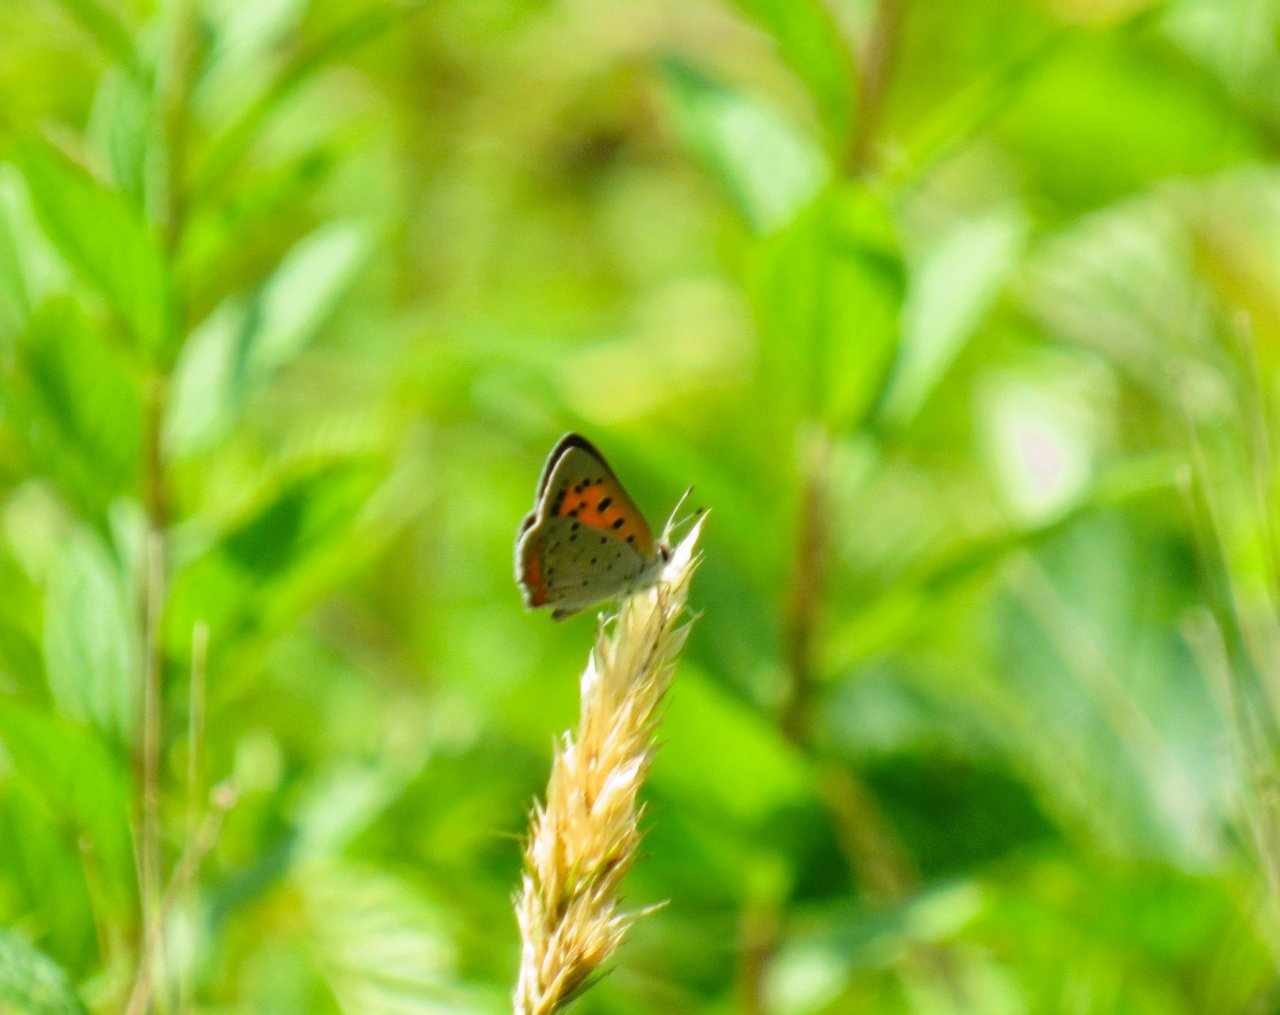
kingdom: Animalia
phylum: Arthropoda
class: Insecta
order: Lepidoptera
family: Lycaenidae
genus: Lycaena
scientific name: Lycaena phlaeas
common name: American Copper
